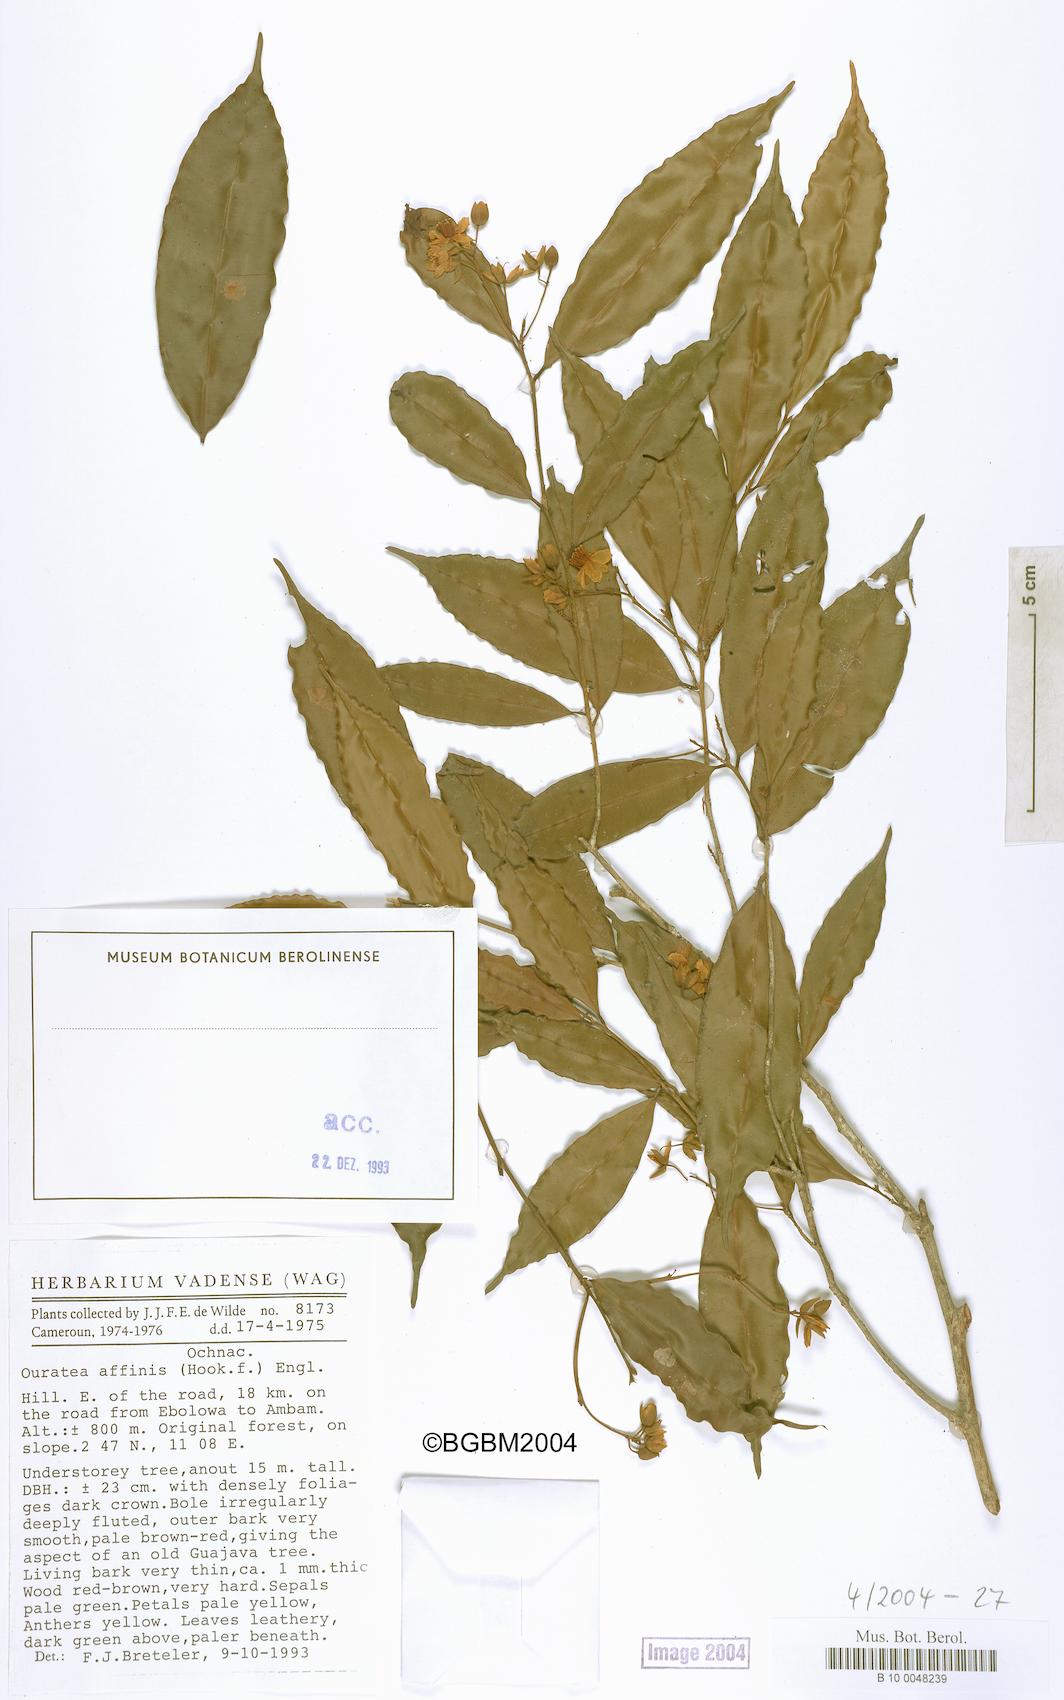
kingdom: Plantae
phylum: Tracheophyta
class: Magnoliopsida
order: Malpighiales
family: Ochnaceae
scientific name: Ochnaceae
